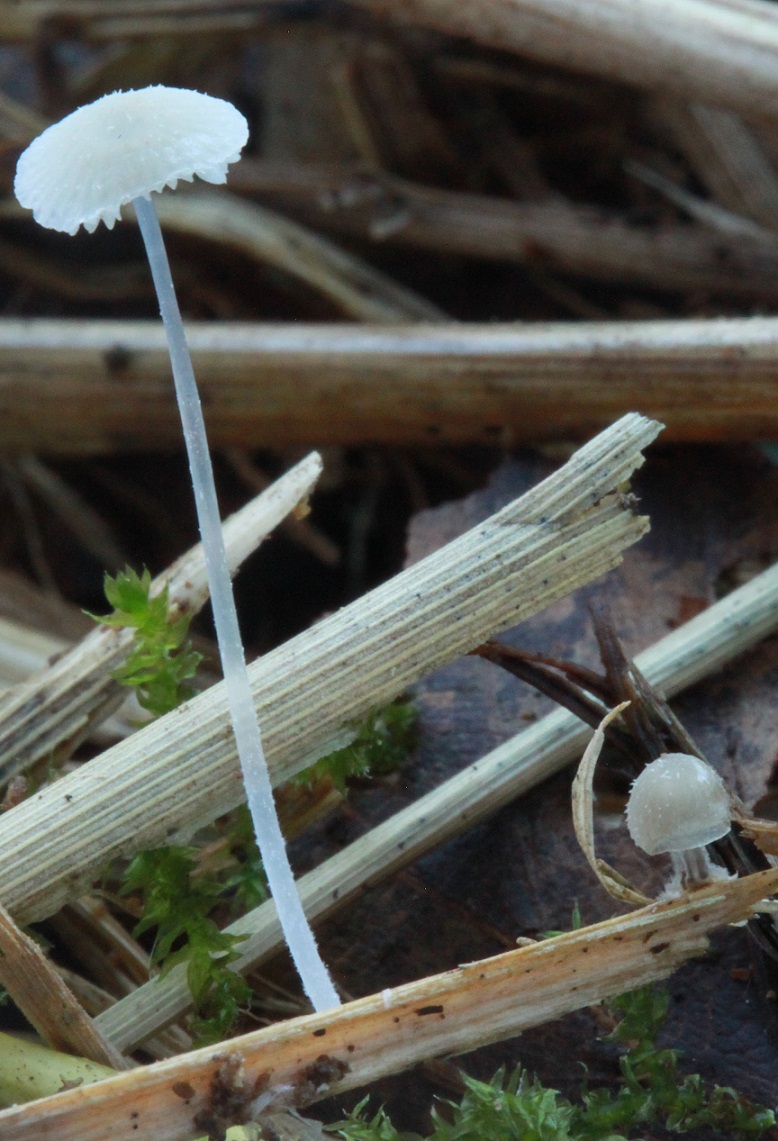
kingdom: Fungi
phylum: Basidiomycota
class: Agaricomycetes
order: Agaricales
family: Mycenaceae
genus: Mycena
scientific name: Mycena stylobates
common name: fureskivet huesvamp
